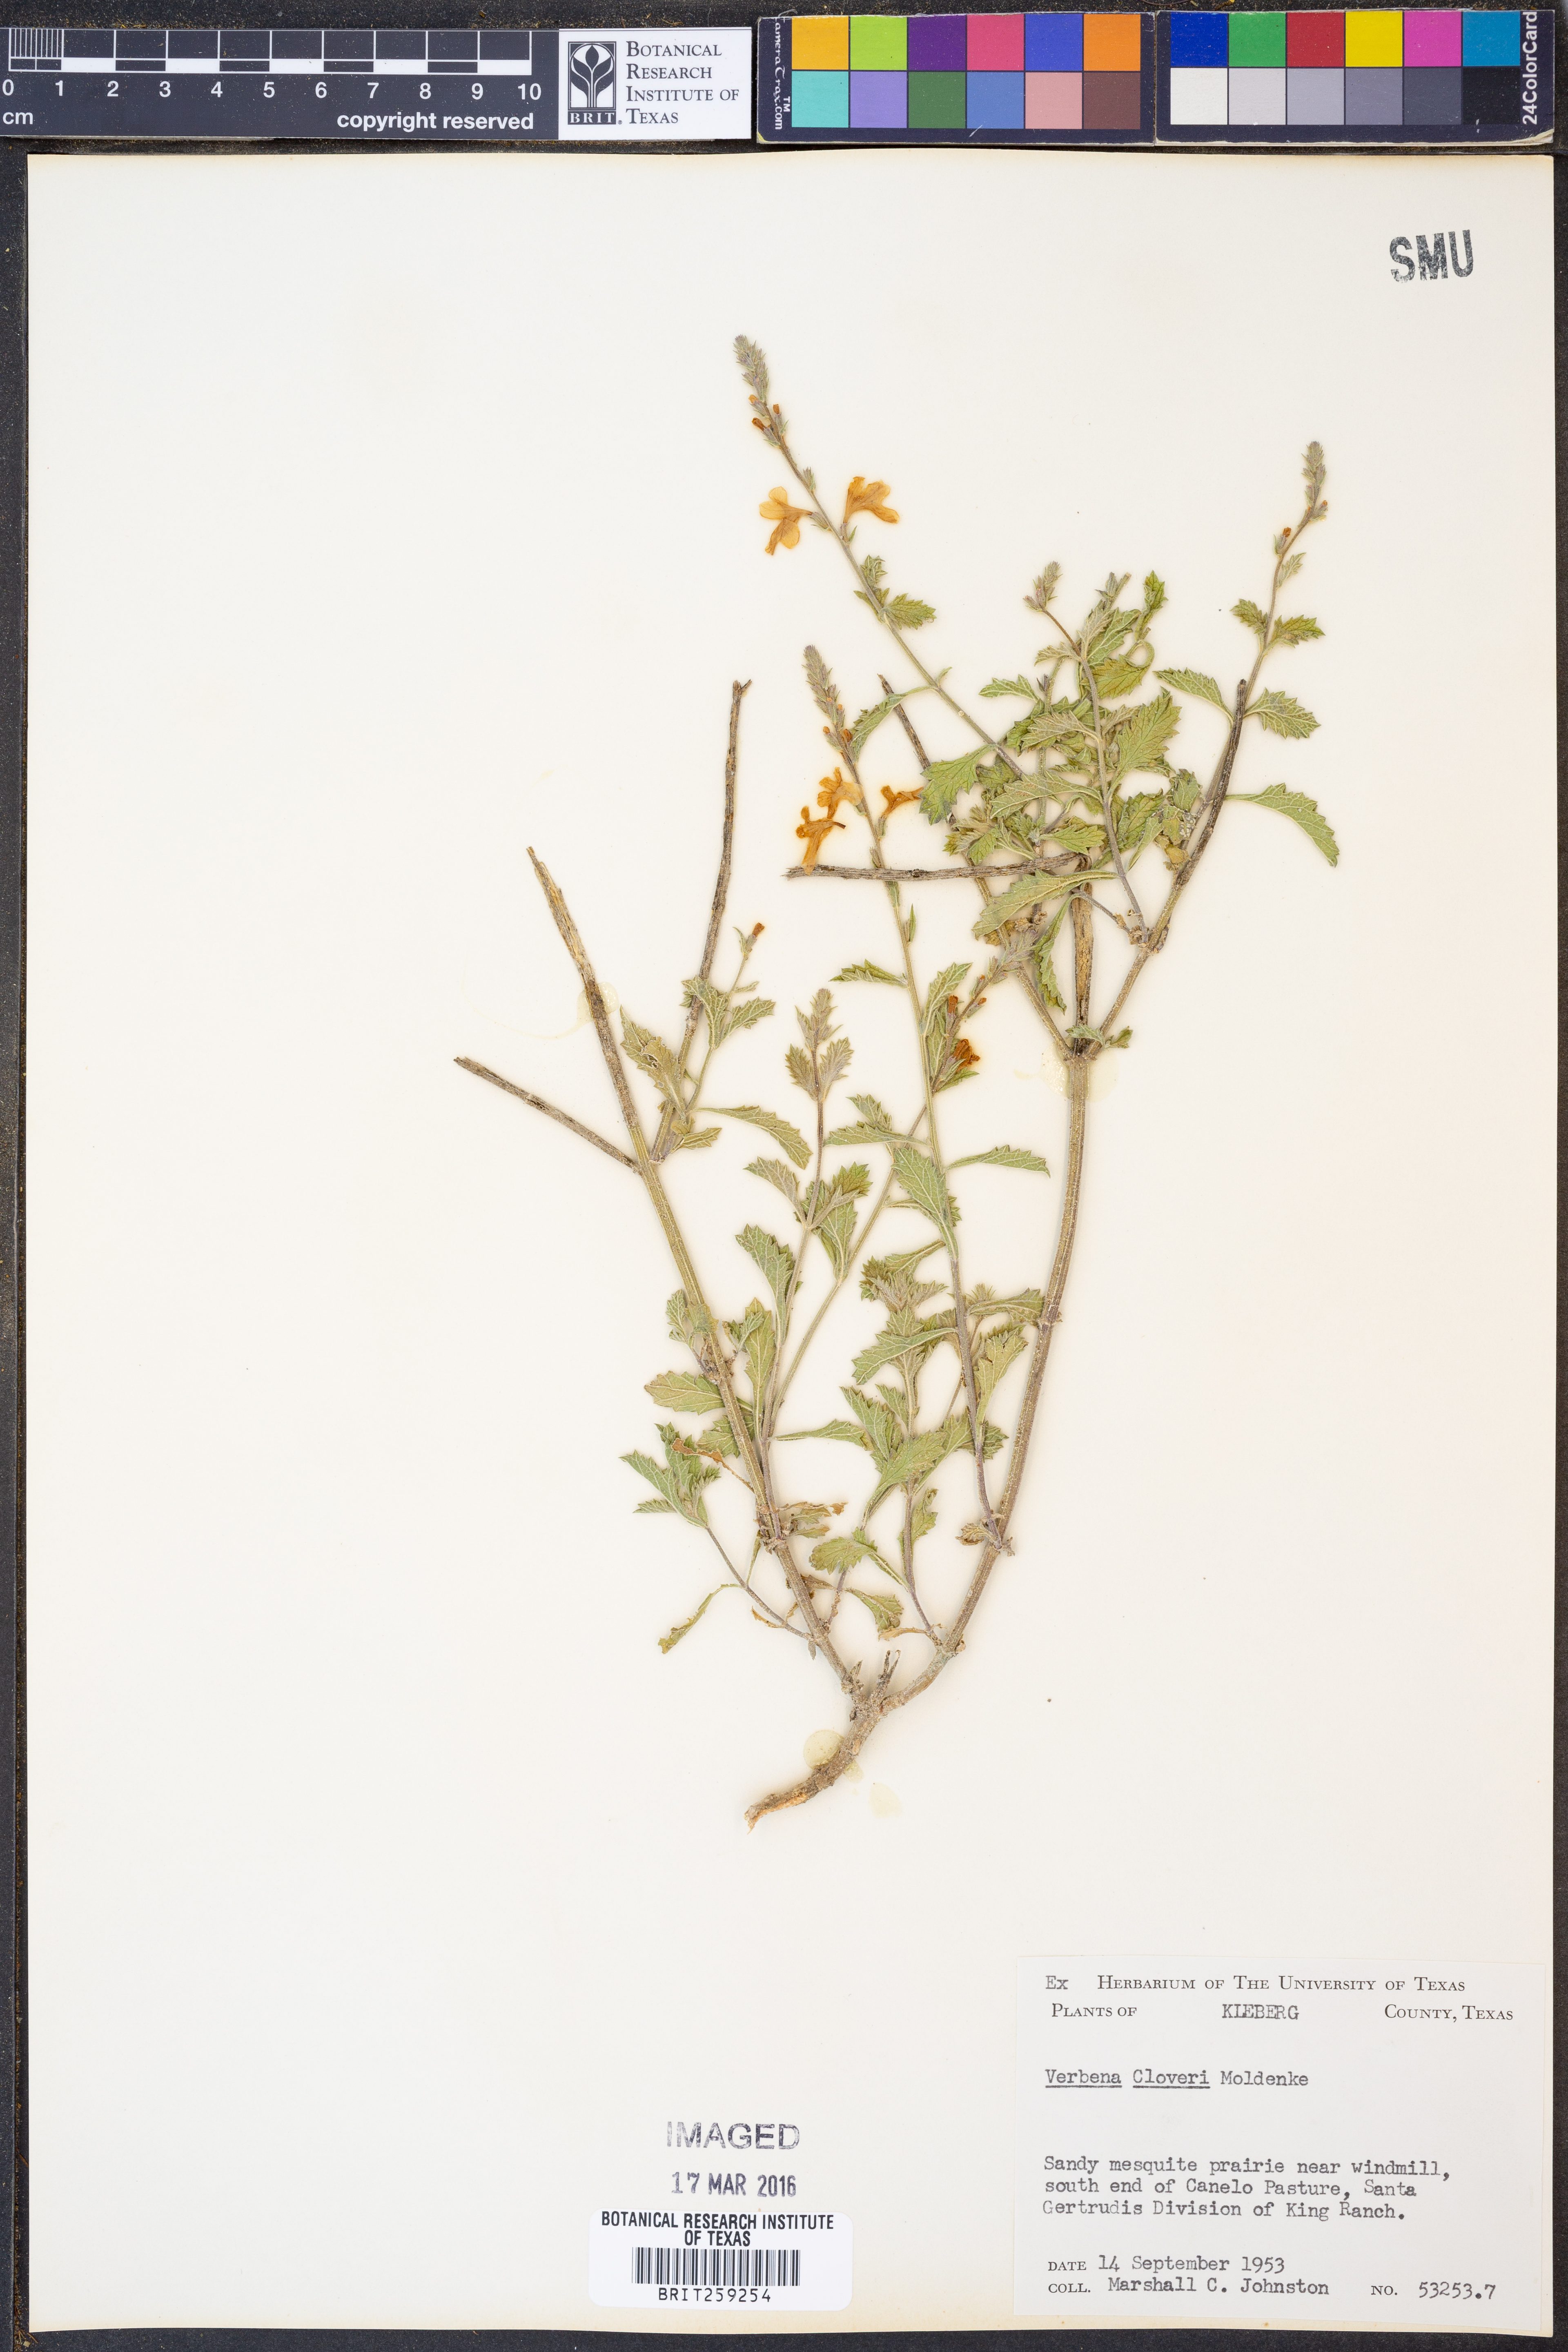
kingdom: Plantae
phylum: Tracheophyta
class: Magnoliopsida
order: Lamiales
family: Verbenaceae
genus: Verbena
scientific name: Verbena cloveri
